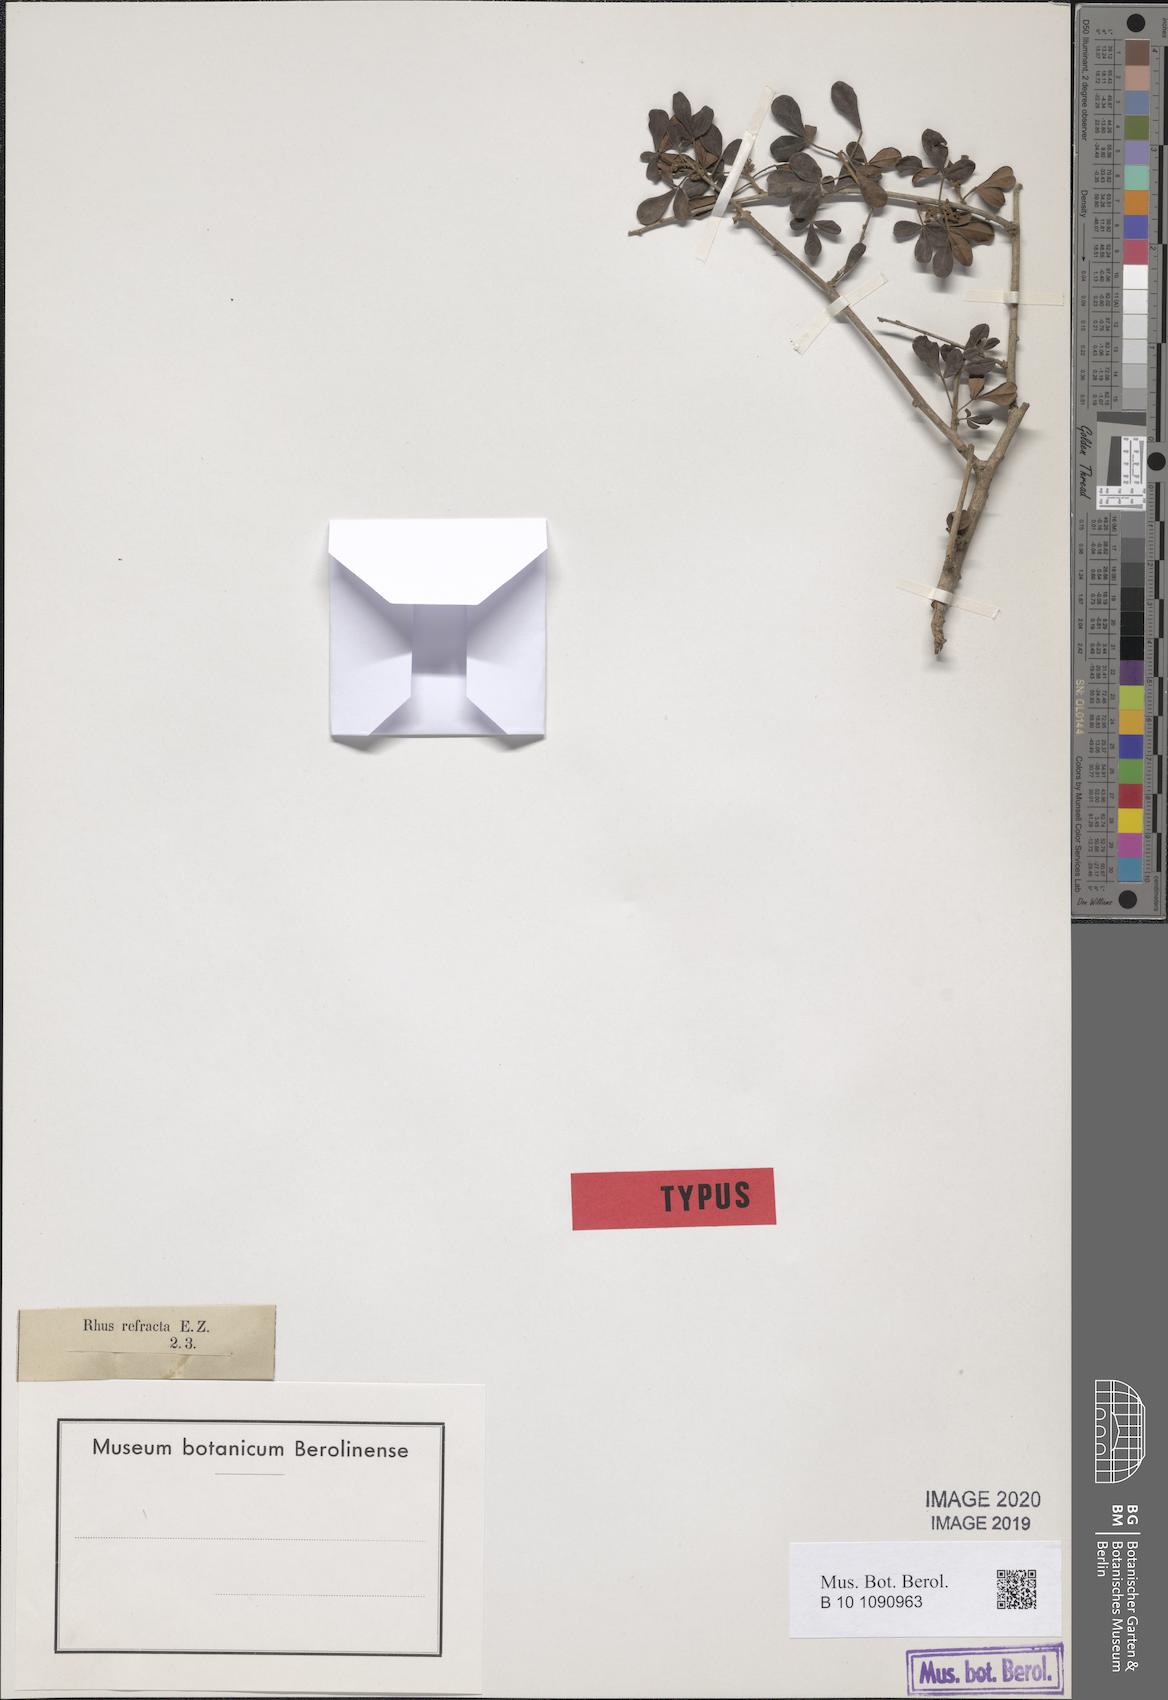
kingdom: Plantae
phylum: Tracheophyta
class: Magnoliopsida
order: Sapindales
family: Anacardiaceae
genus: Searsia
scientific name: Searsia refracta
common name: Thorny crow-berry
